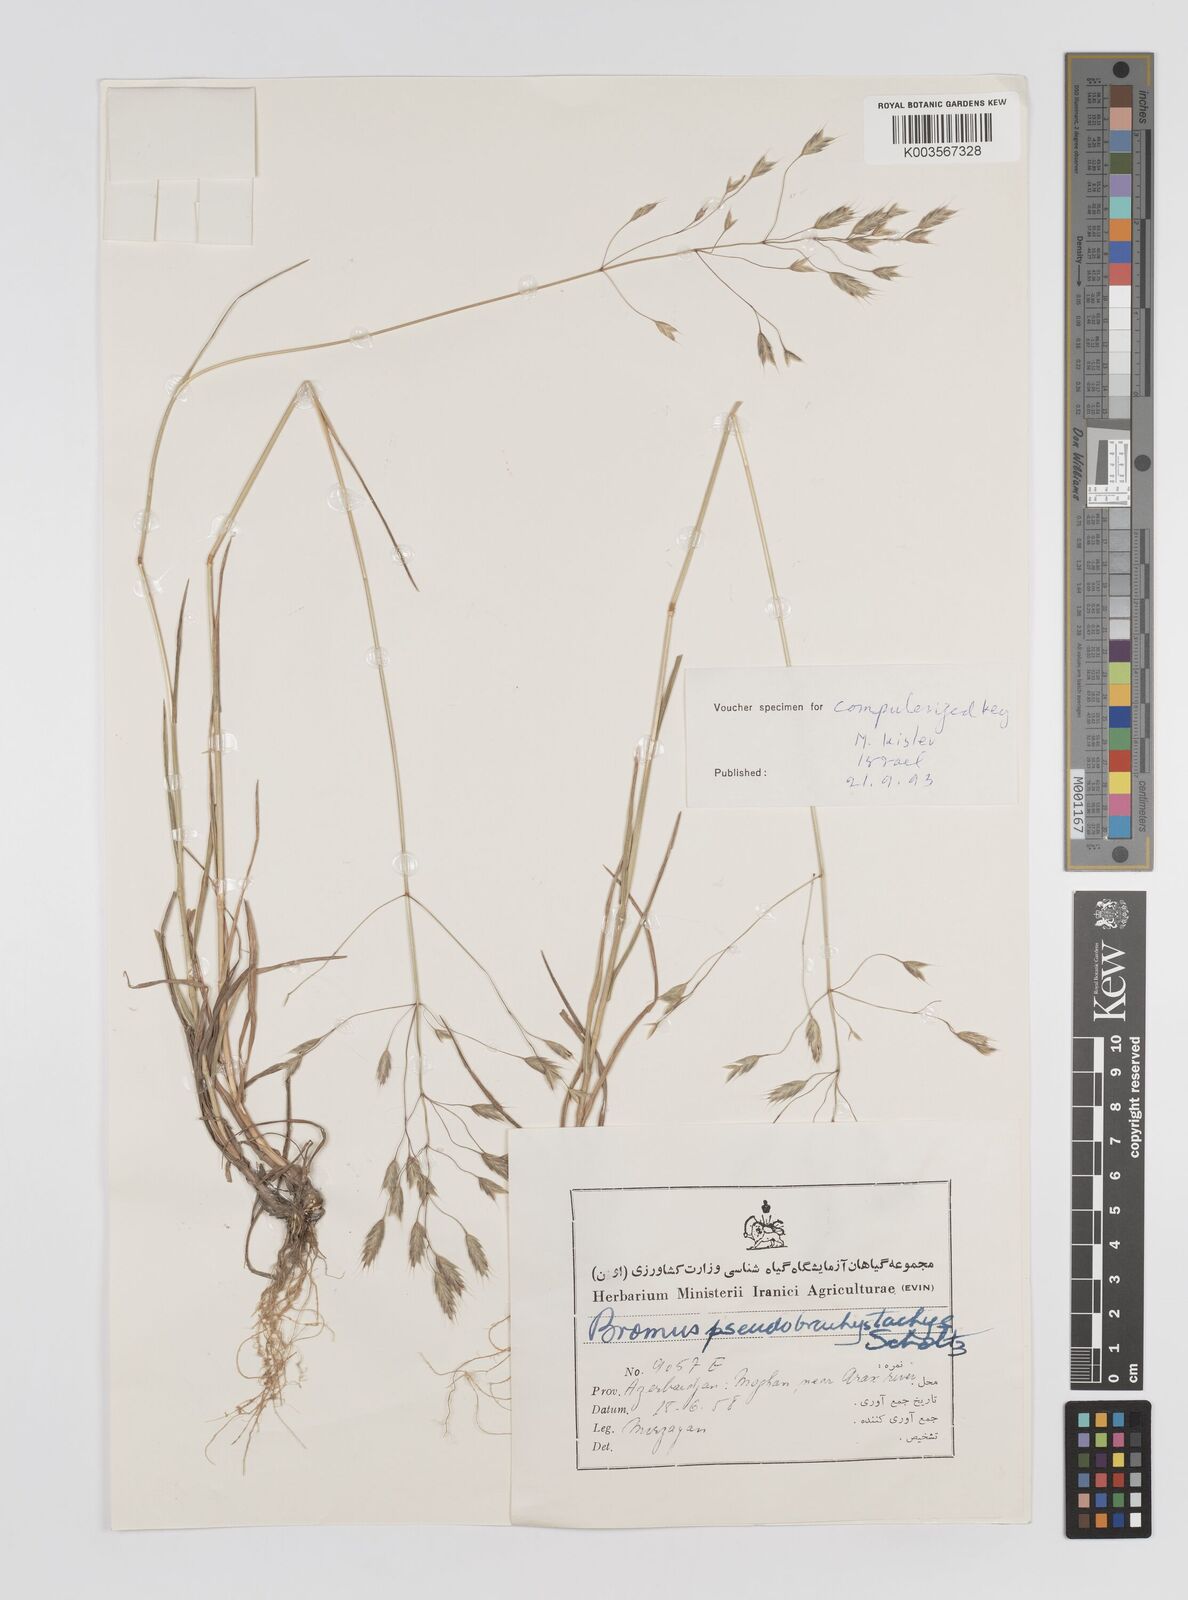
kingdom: Plantae
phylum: Tracheophyta
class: Liliopsida
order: Poales
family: Poaceae
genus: Bromus
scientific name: Bromus pseudobrachystachys
